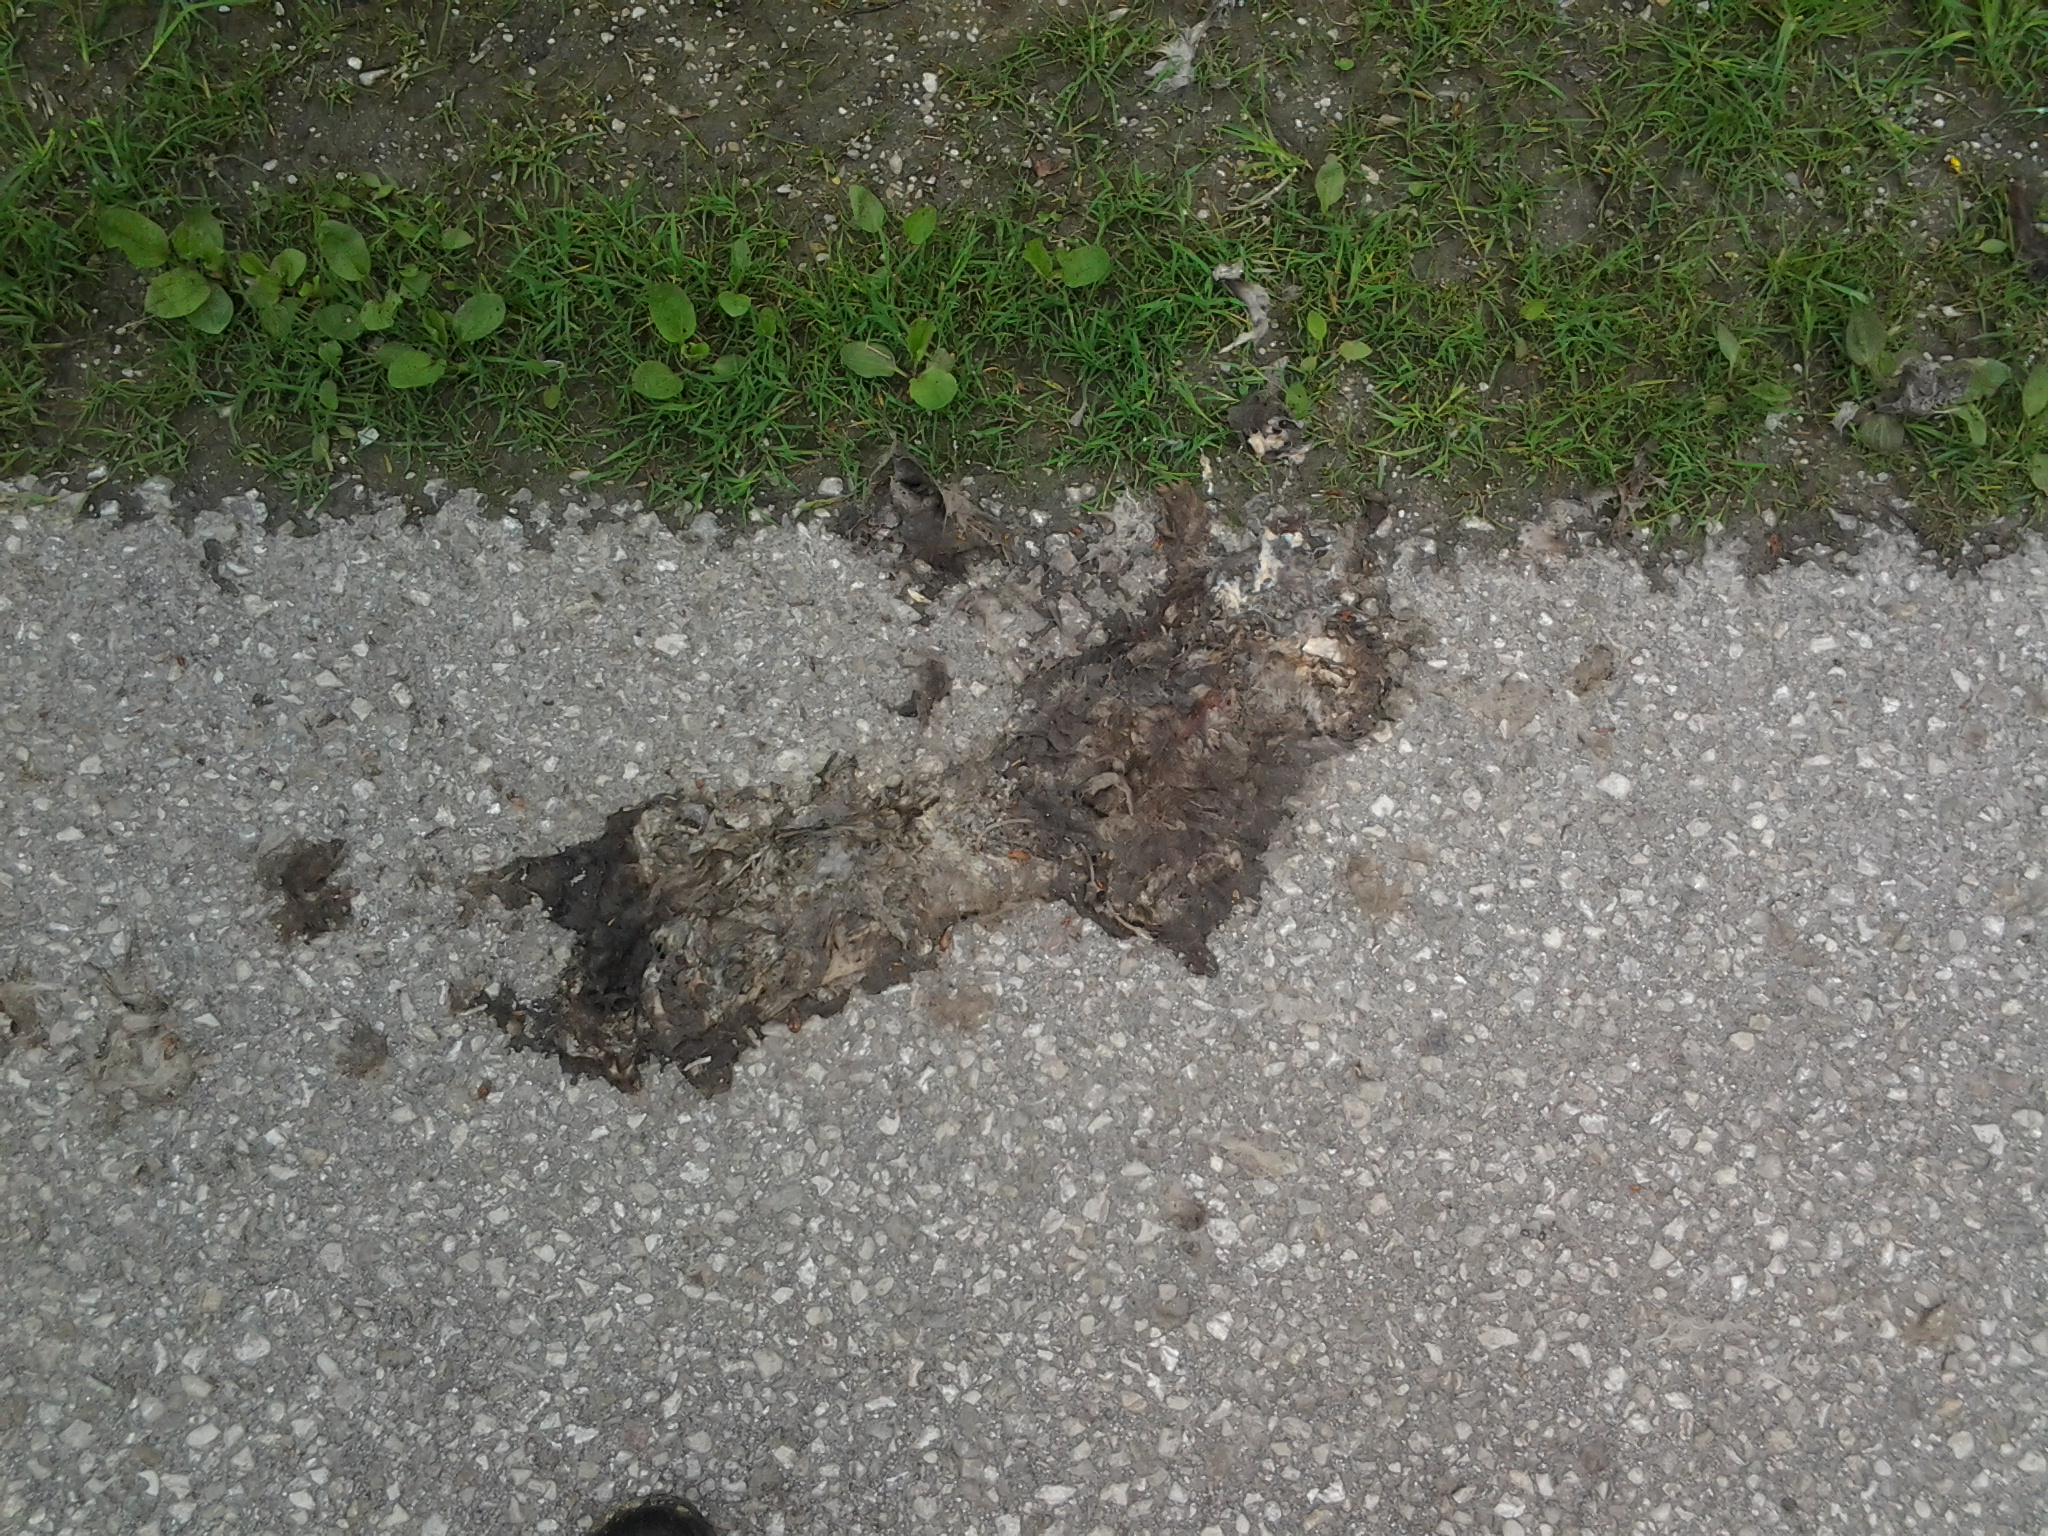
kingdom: Animalia
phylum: Chordata
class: Mammalia
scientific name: Mammalia
